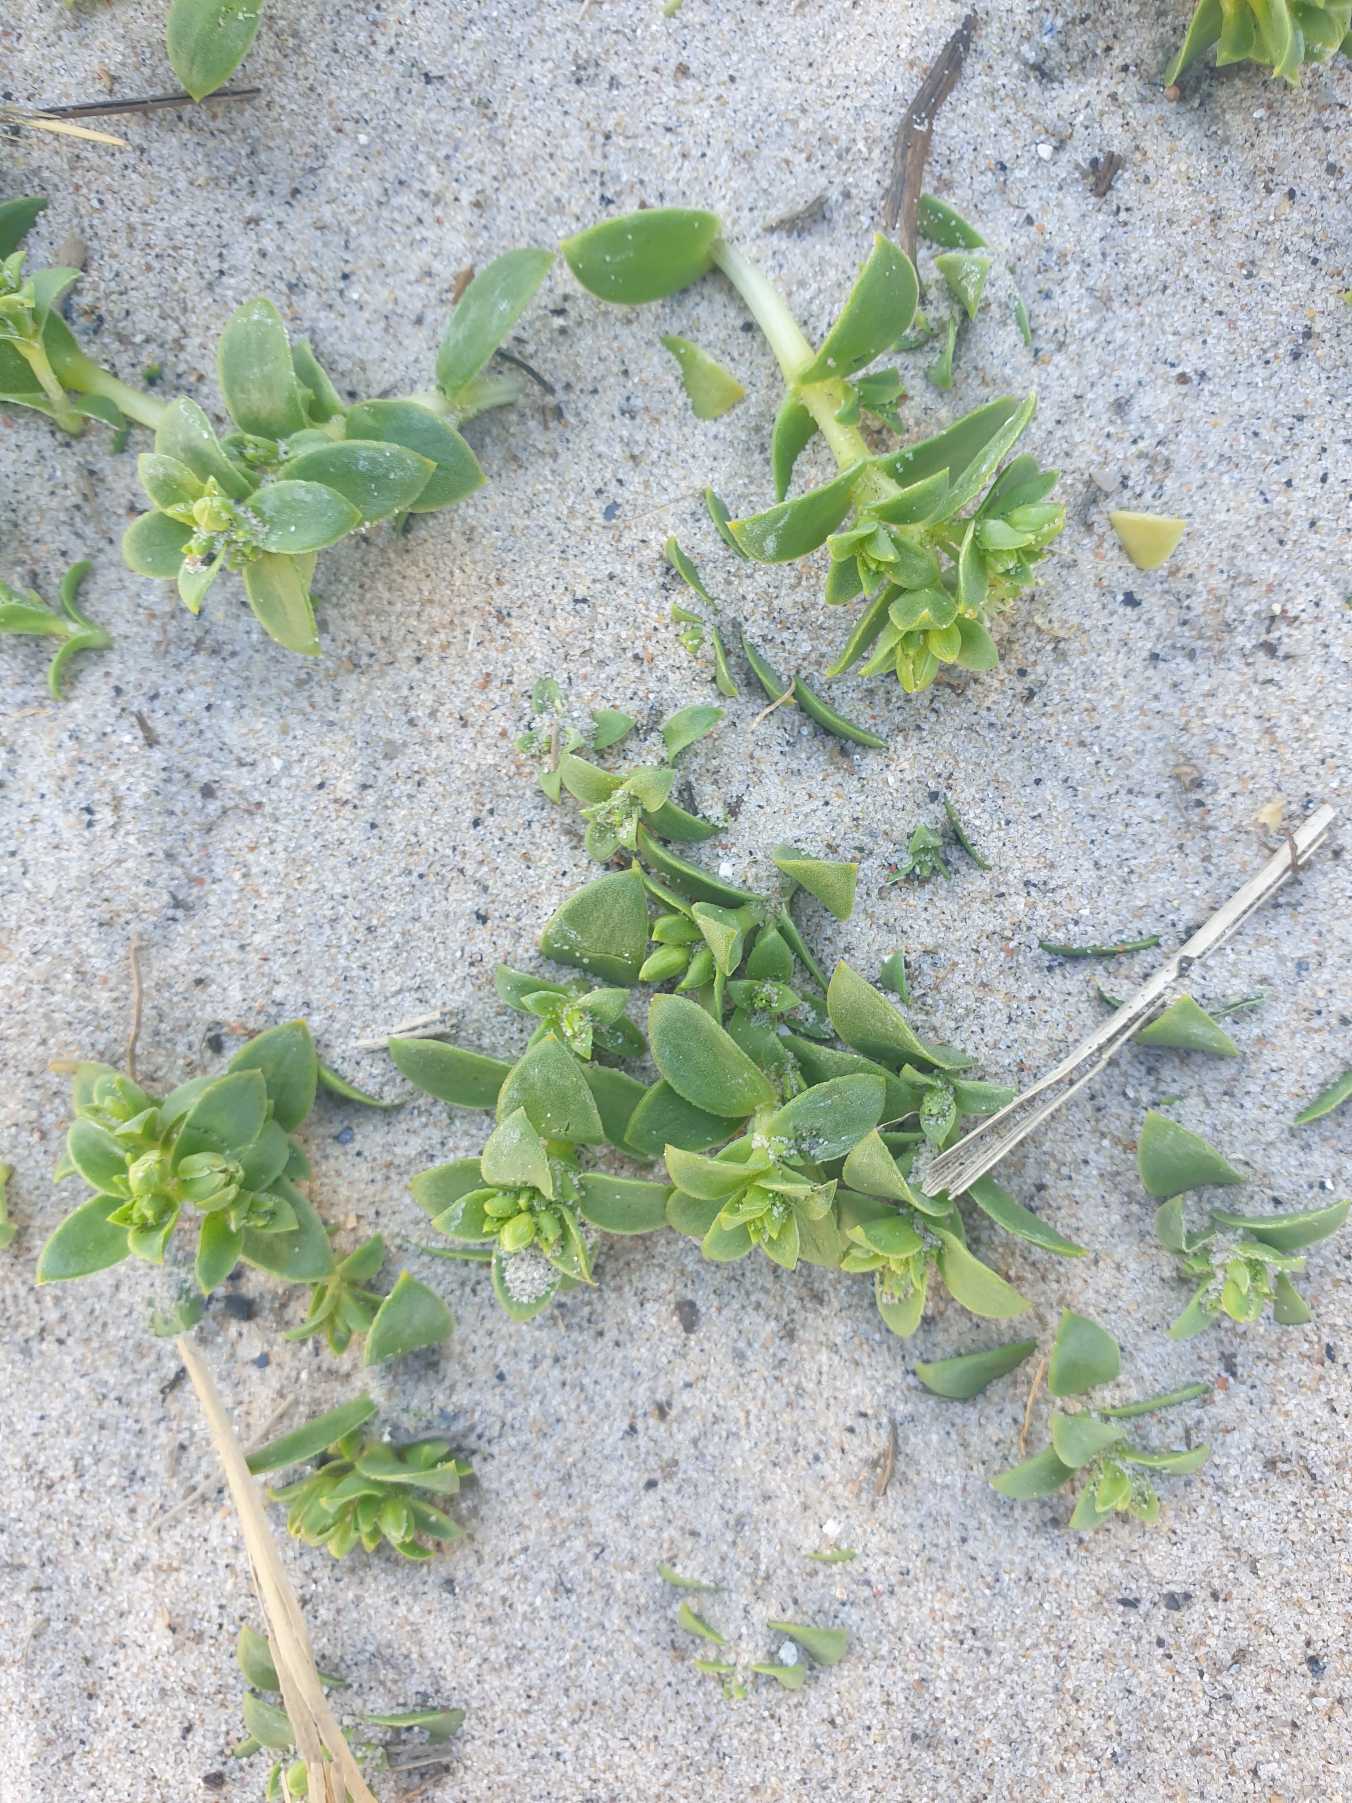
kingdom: Plantae
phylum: Tracheophyta
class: Magnoliopsida
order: Caryophyllales
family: Caryophyllaceae
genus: Honckenya
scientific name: Honckenya peploides
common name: Strandarve
